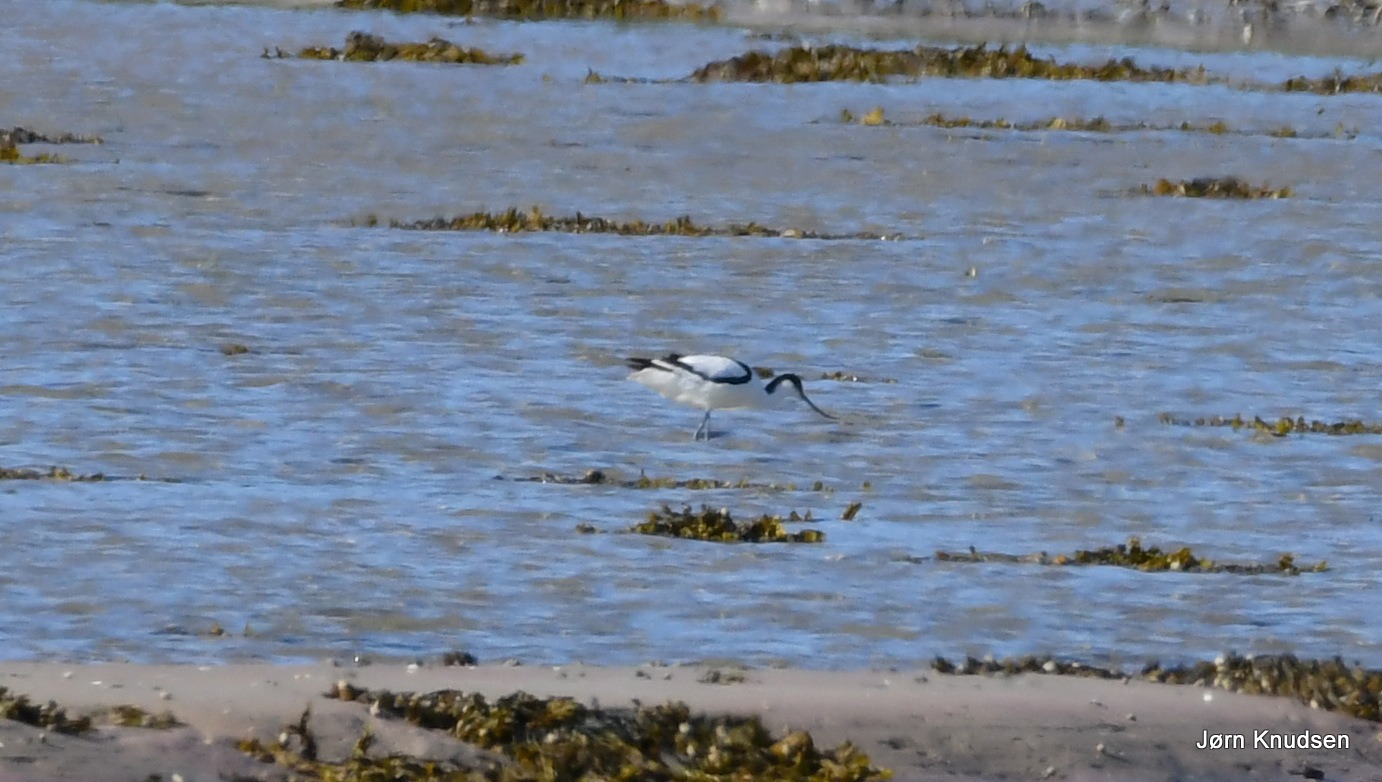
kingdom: Animalia
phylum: Chordata
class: Aves
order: Charadriiformes
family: Recurvirostridae
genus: Recurvirostra
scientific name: Recurvirostra avosetta
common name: Klyde
